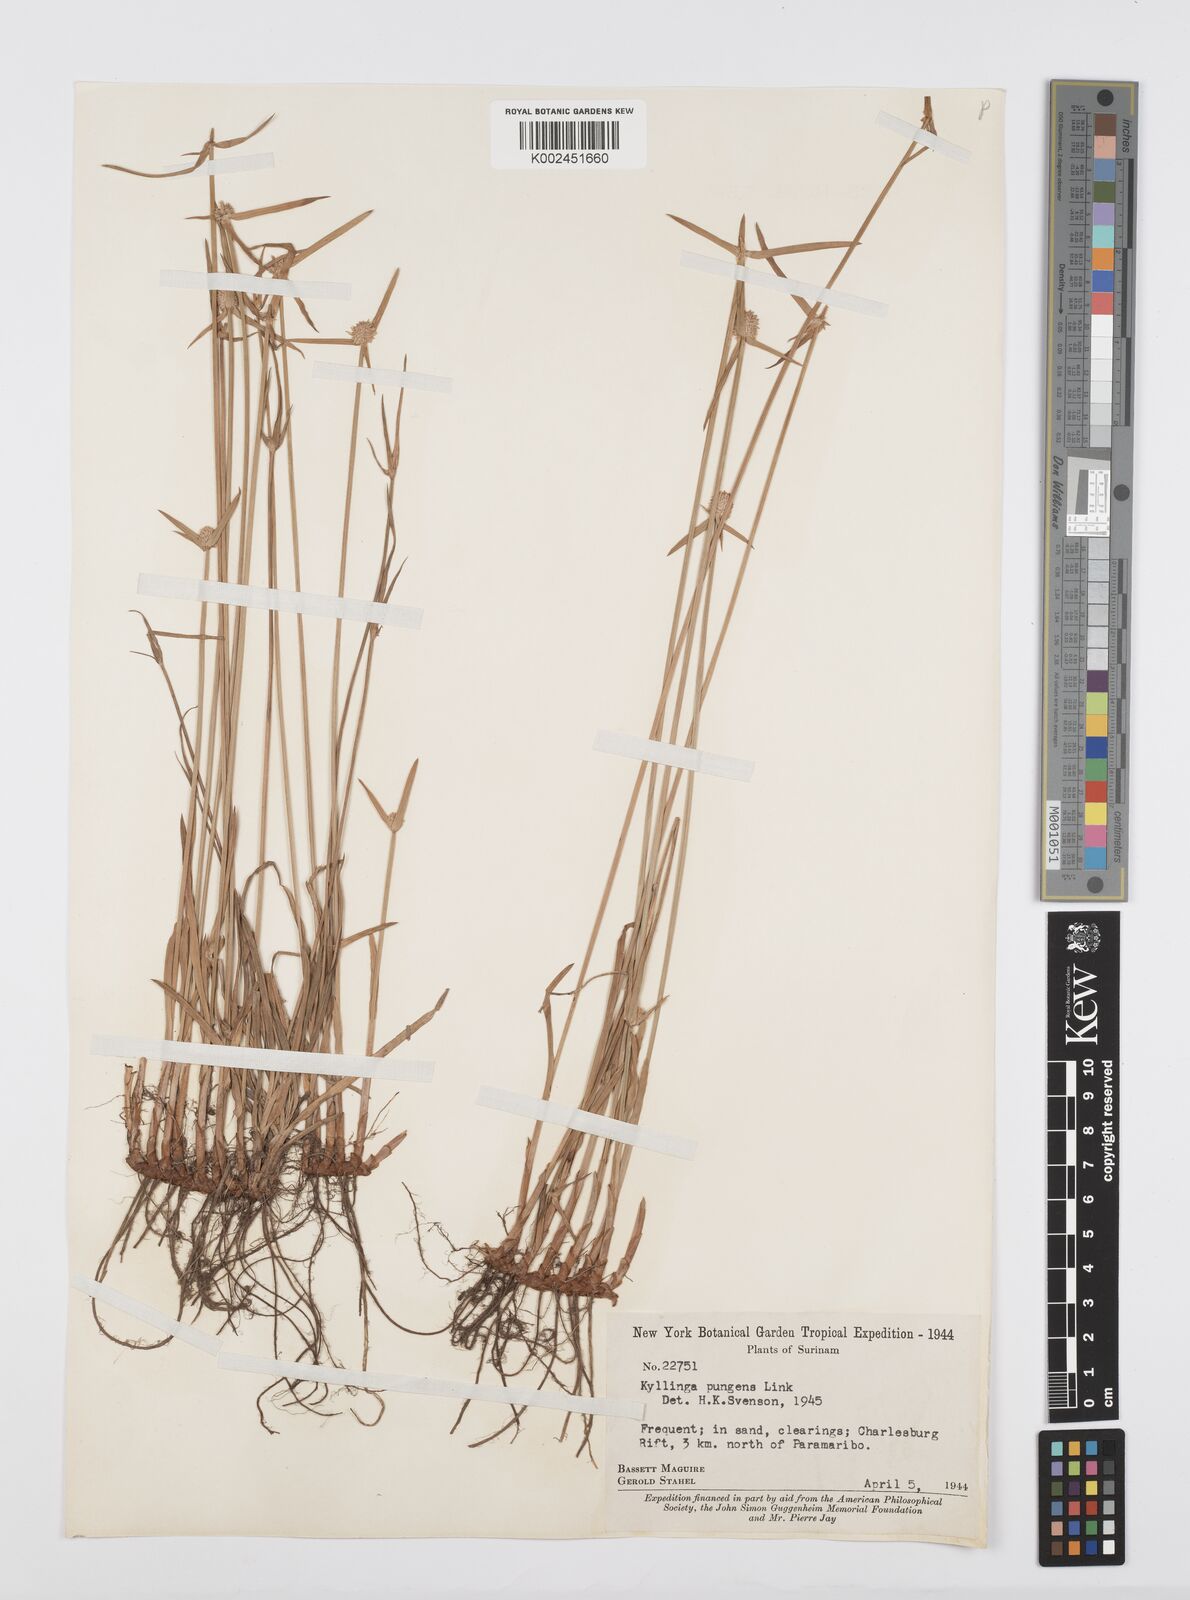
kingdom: Plantae
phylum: Tracheophyta
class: Liliopsida
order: Poales
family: Cyperaceae
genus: Cyperus
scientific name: Cyperus obtusatus
